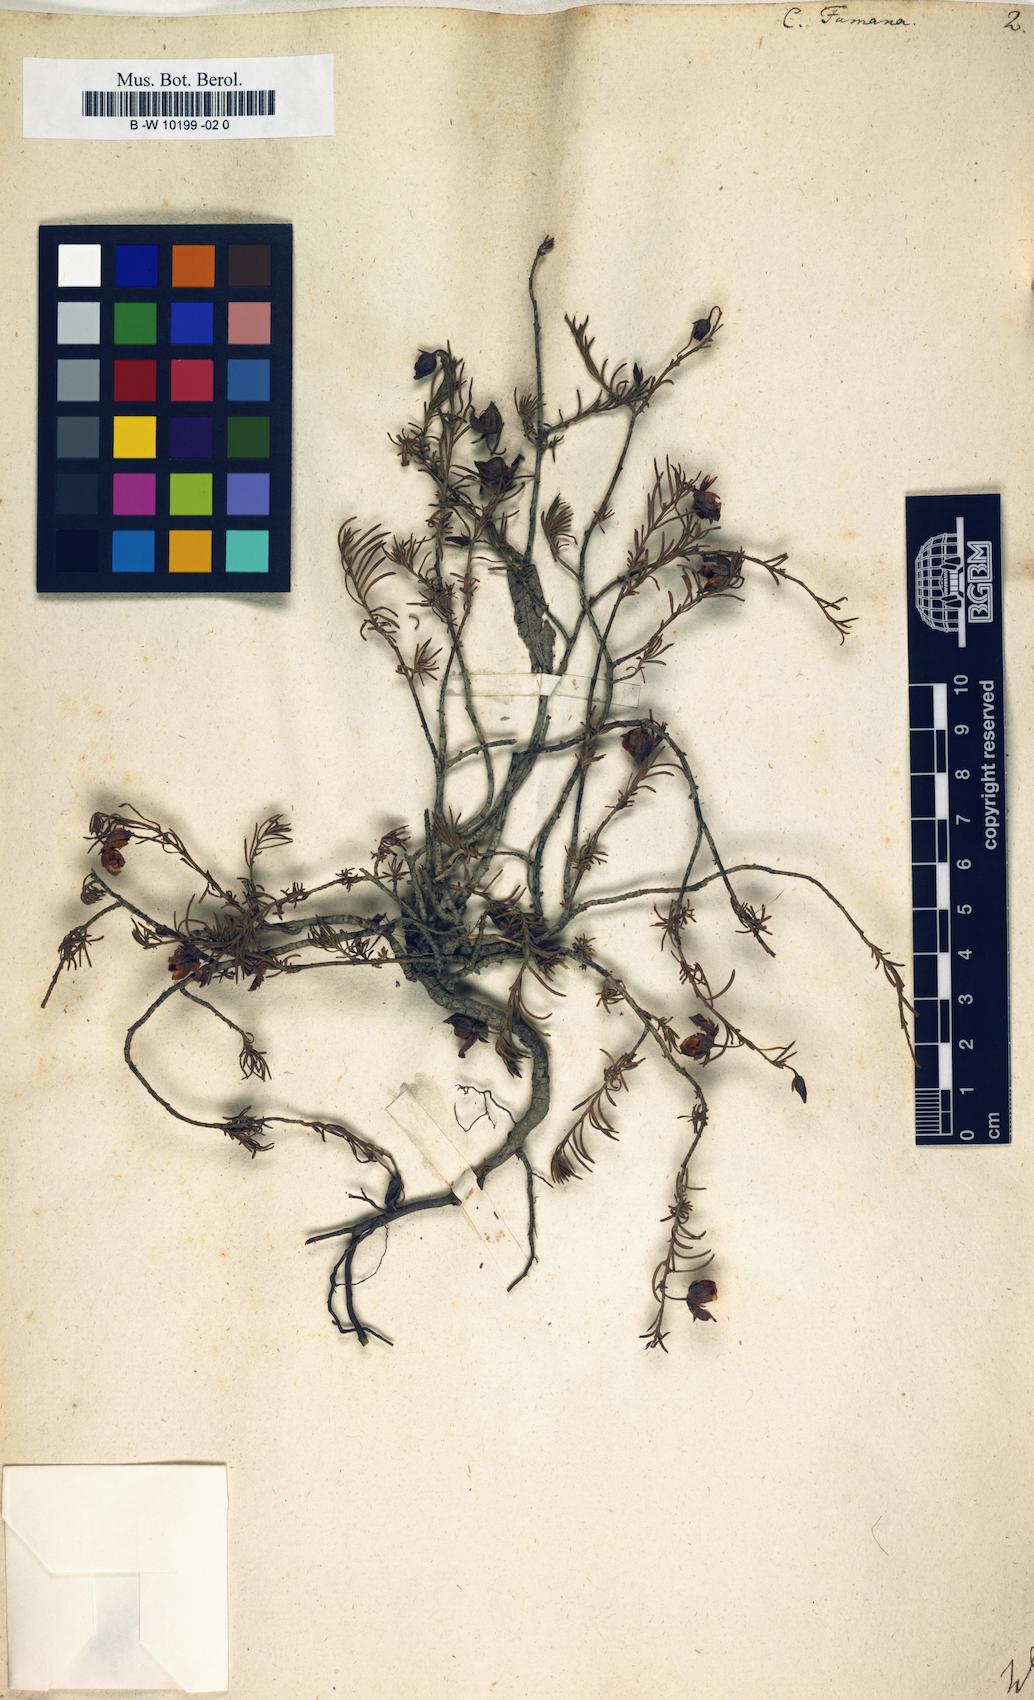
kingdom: Plantae
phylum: Tracheophyta
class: Magnoliopsida
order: Malvales
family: Cistaceae
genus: Fumana
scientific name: Fumana procumbens
